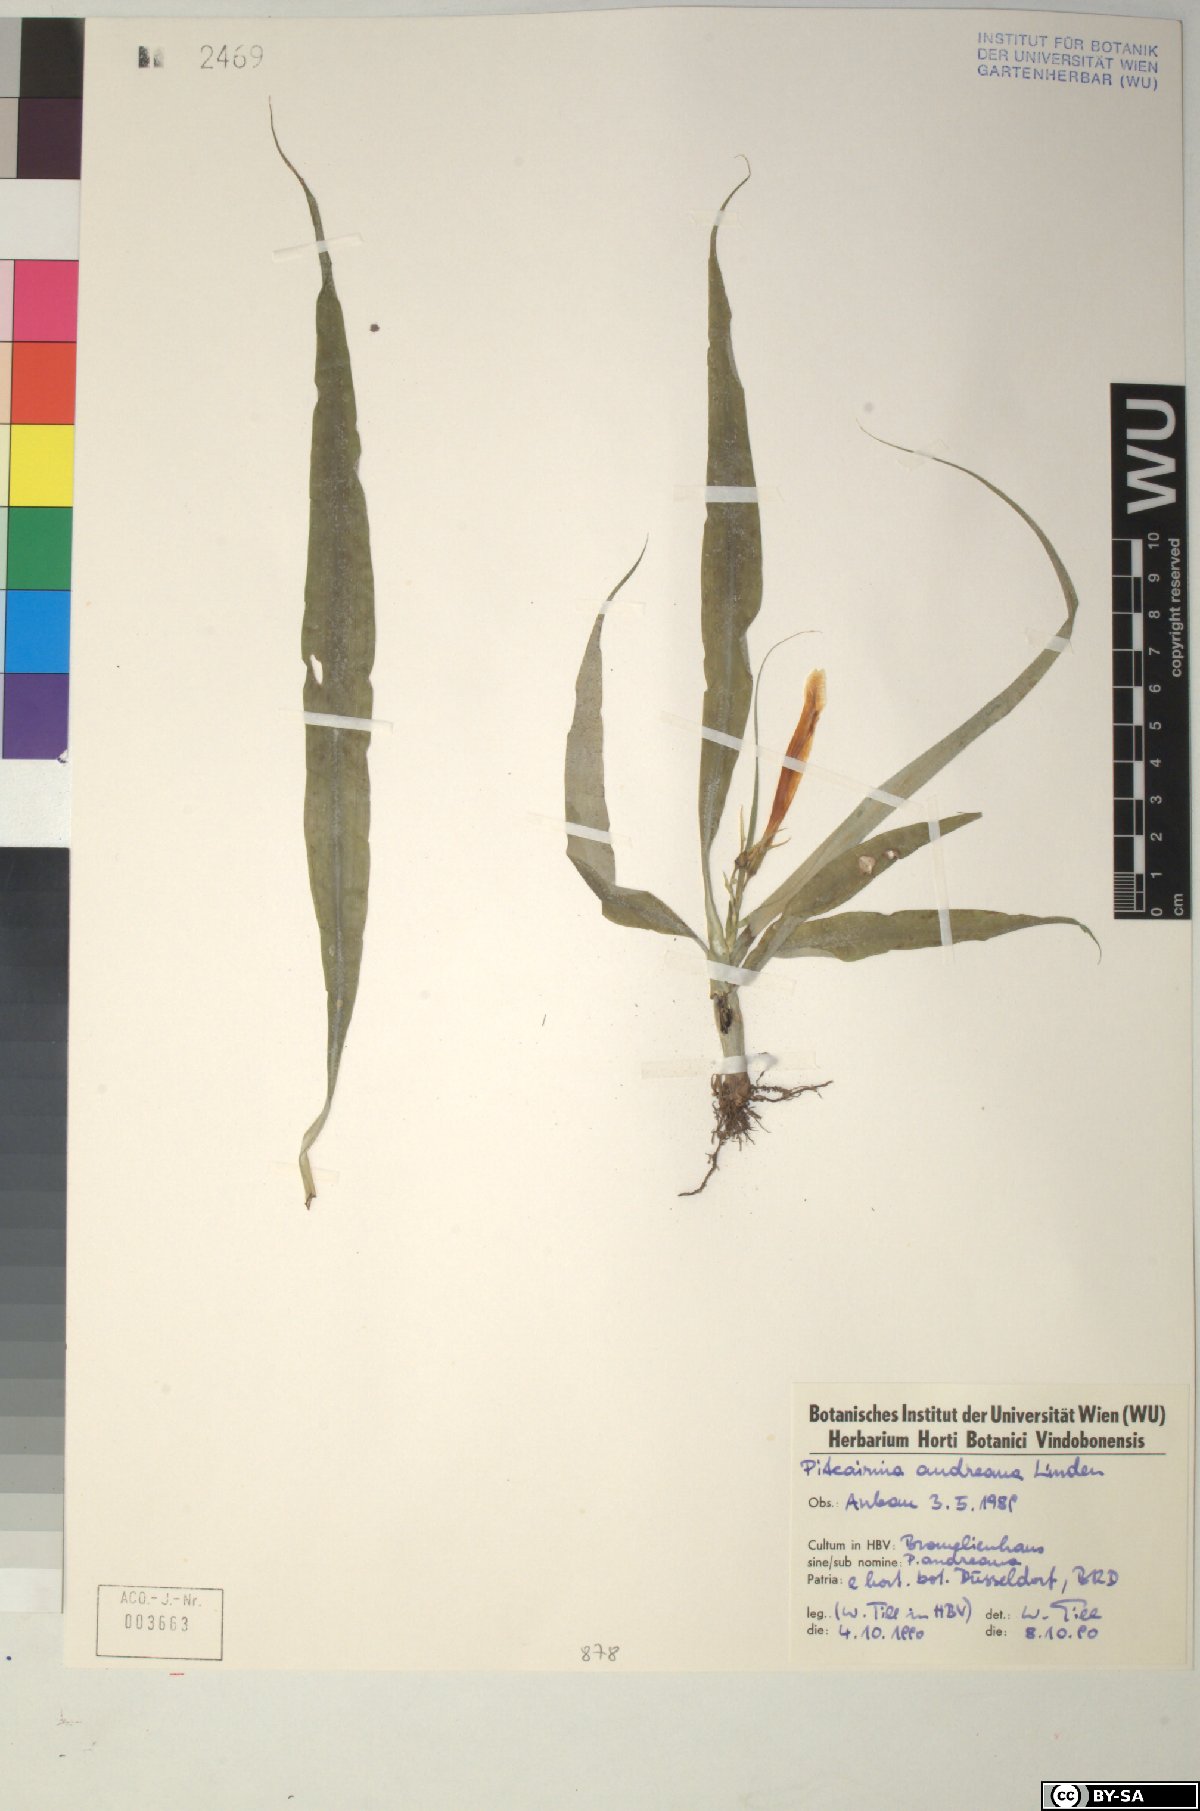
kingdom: Plantae
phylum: Tracheophyta
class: Liliopsida
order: Poales
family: Bromeliaceae
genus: Pitcairnia
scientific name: Pitcairnia andreana
